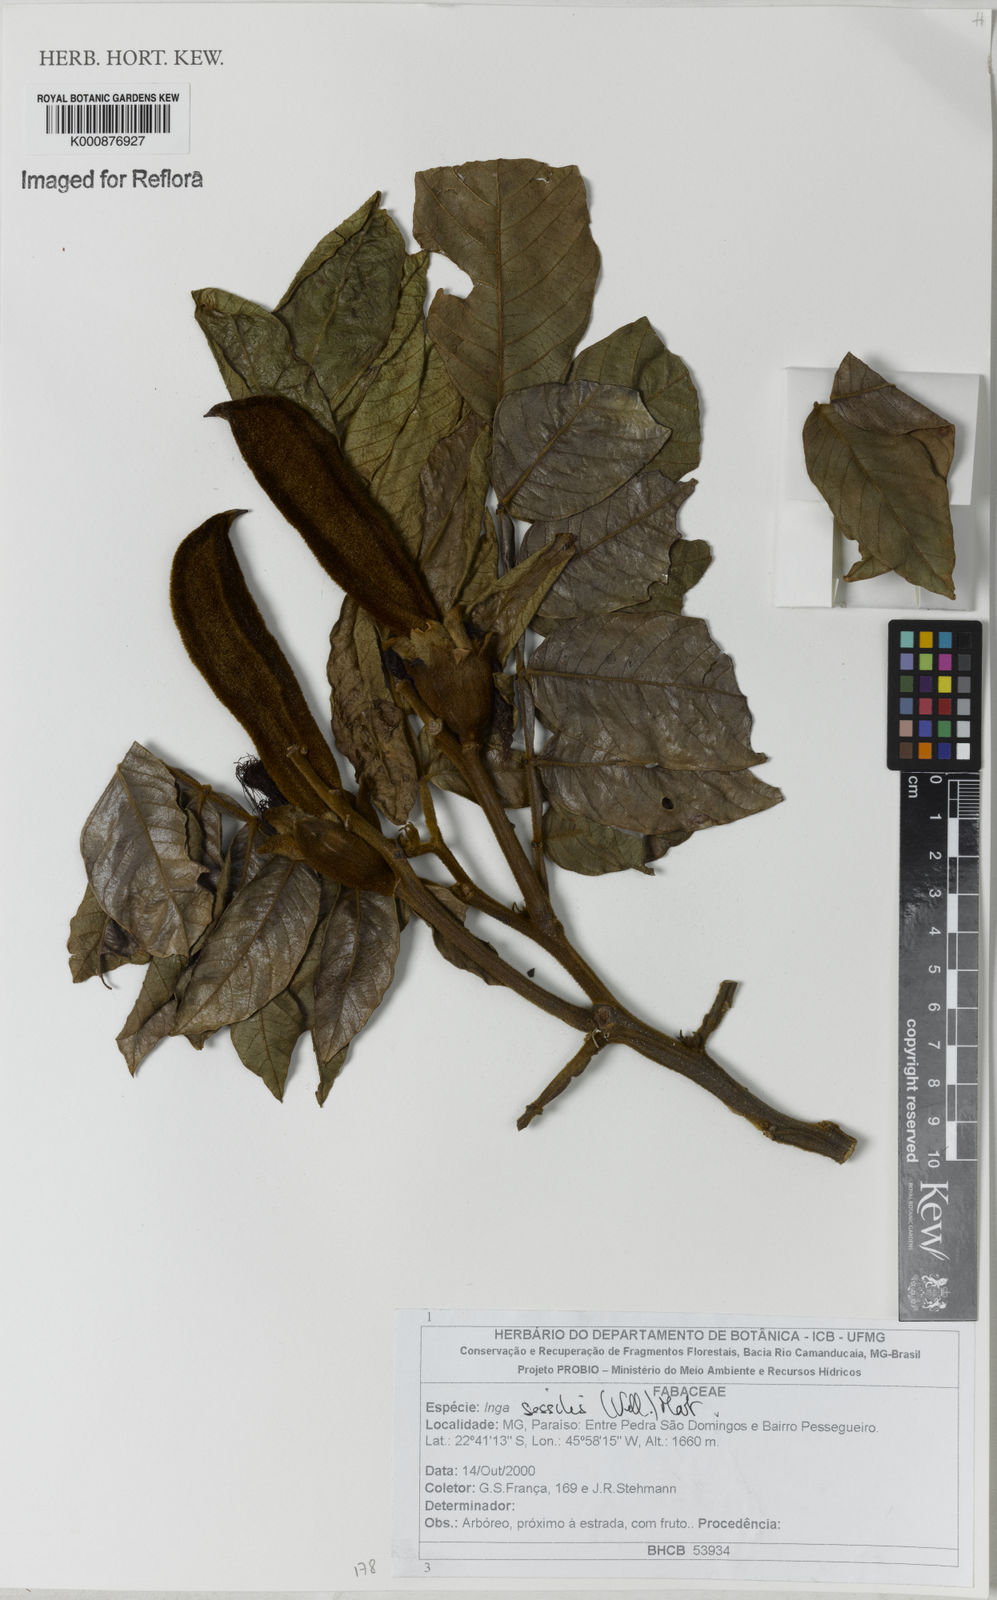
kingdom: Plantae
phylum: Tracheophyta
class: Magnoliopsida
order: Fabales
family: Fabaceae
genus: Inga
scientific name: Inga sessilis
